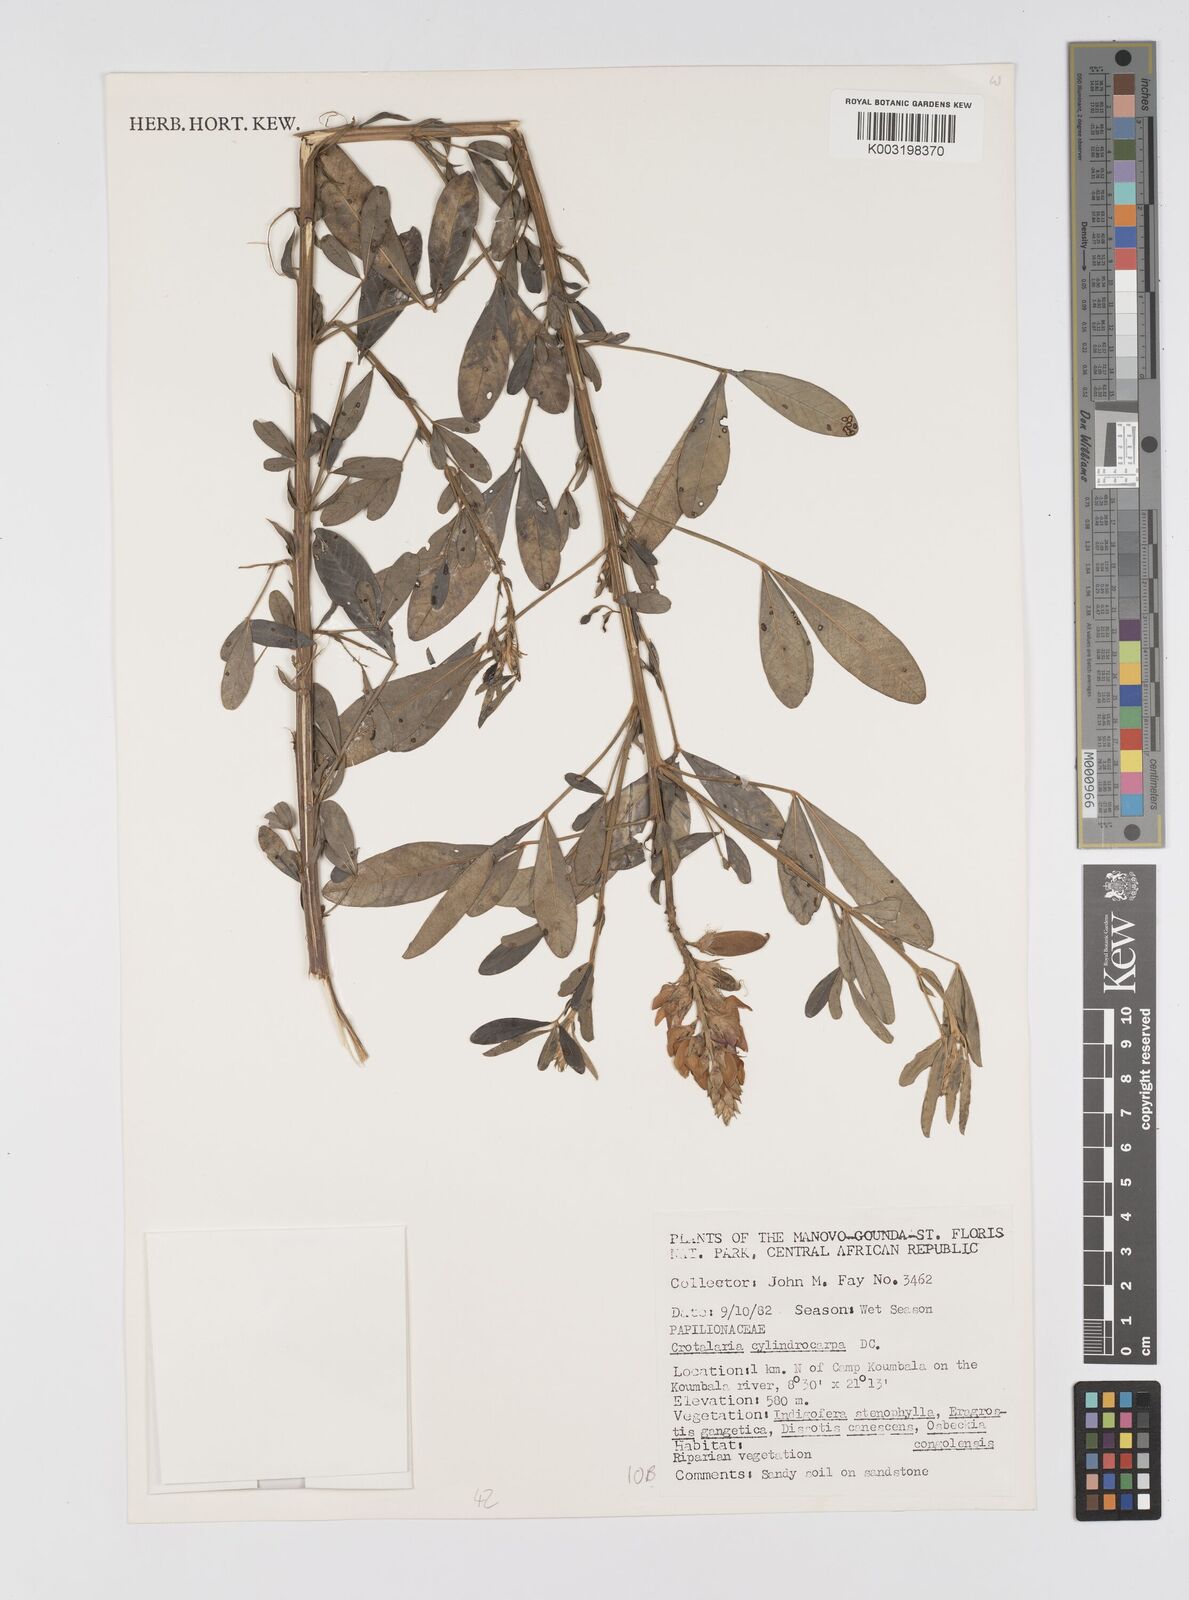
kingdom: Plantae
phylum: Tracheophyta
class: Magnoliopsida
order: Fabales
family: Fabaceae
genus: Crotalaria
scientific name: Crotalaria cylindrocarpa
